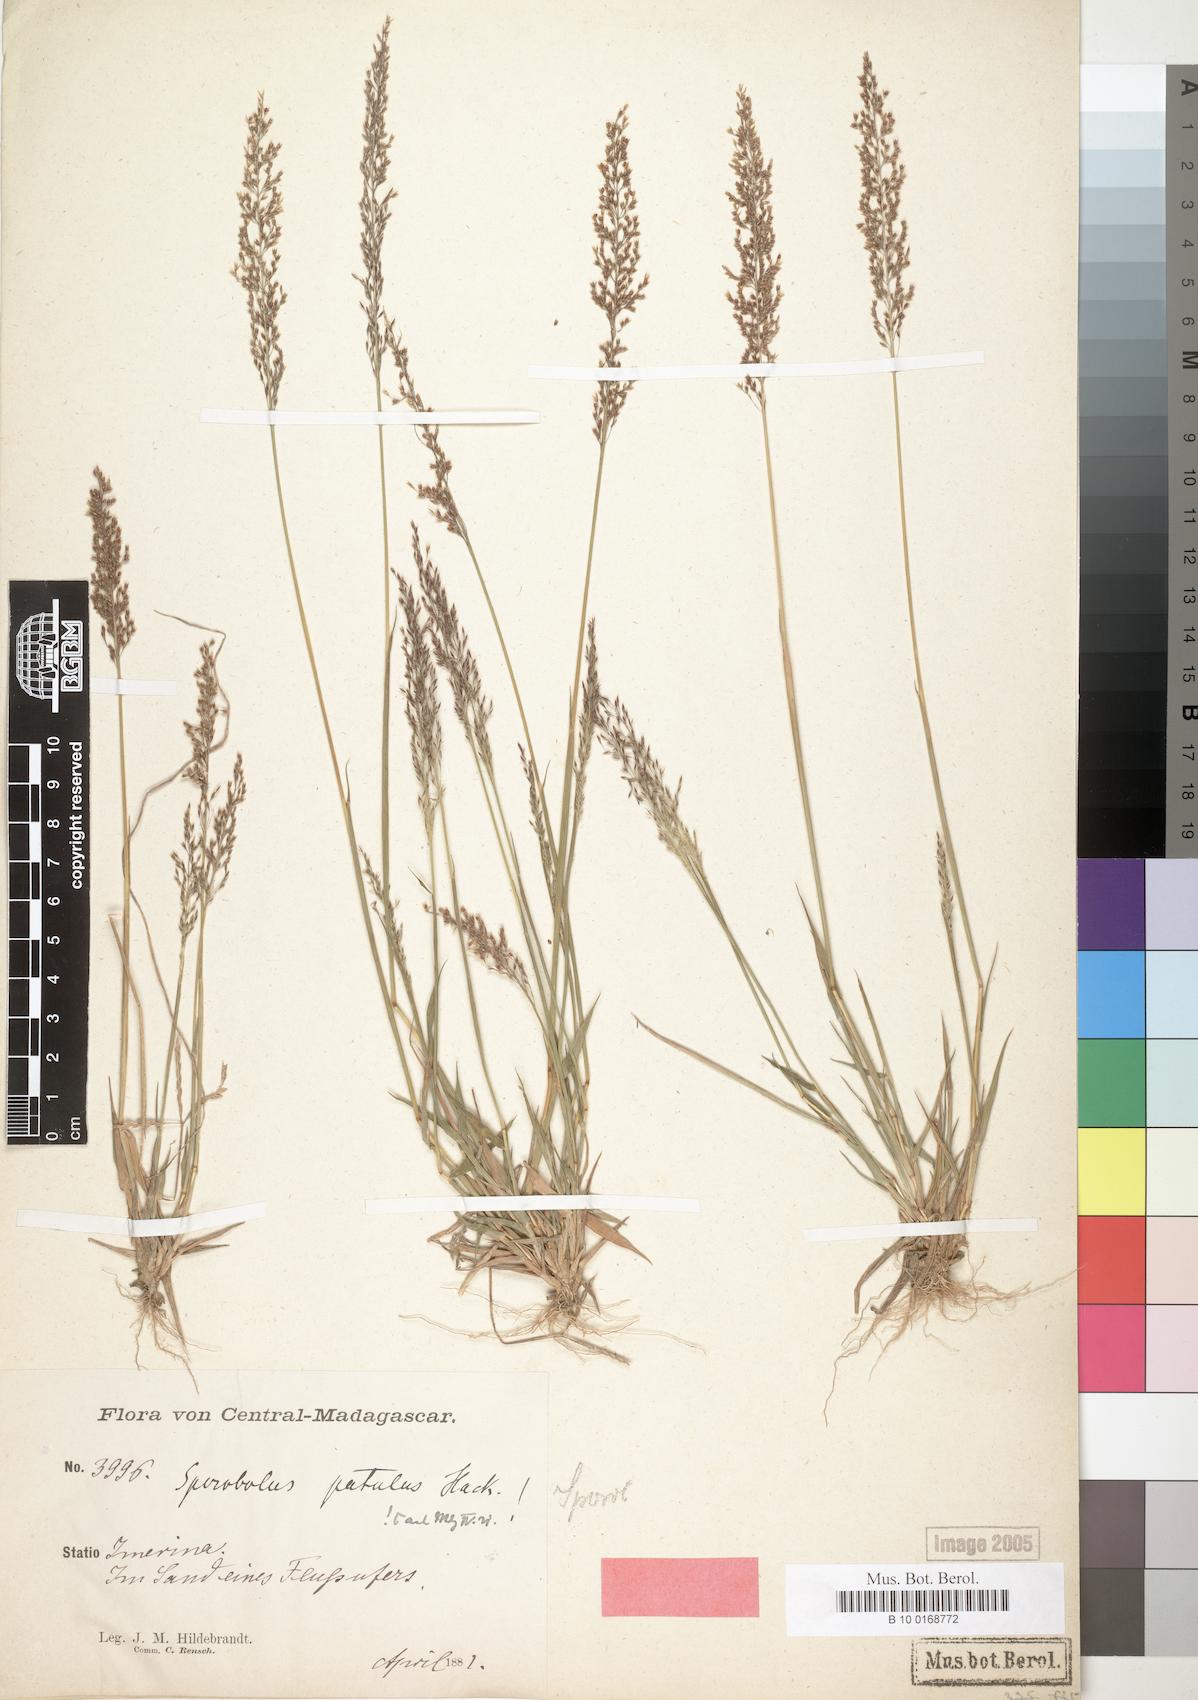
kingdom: Plantae
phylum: Tracheophyta
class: Liliopsida
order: Poales
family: Poaceae
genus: Sporobolus
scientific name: Sporobolus paniculatus
